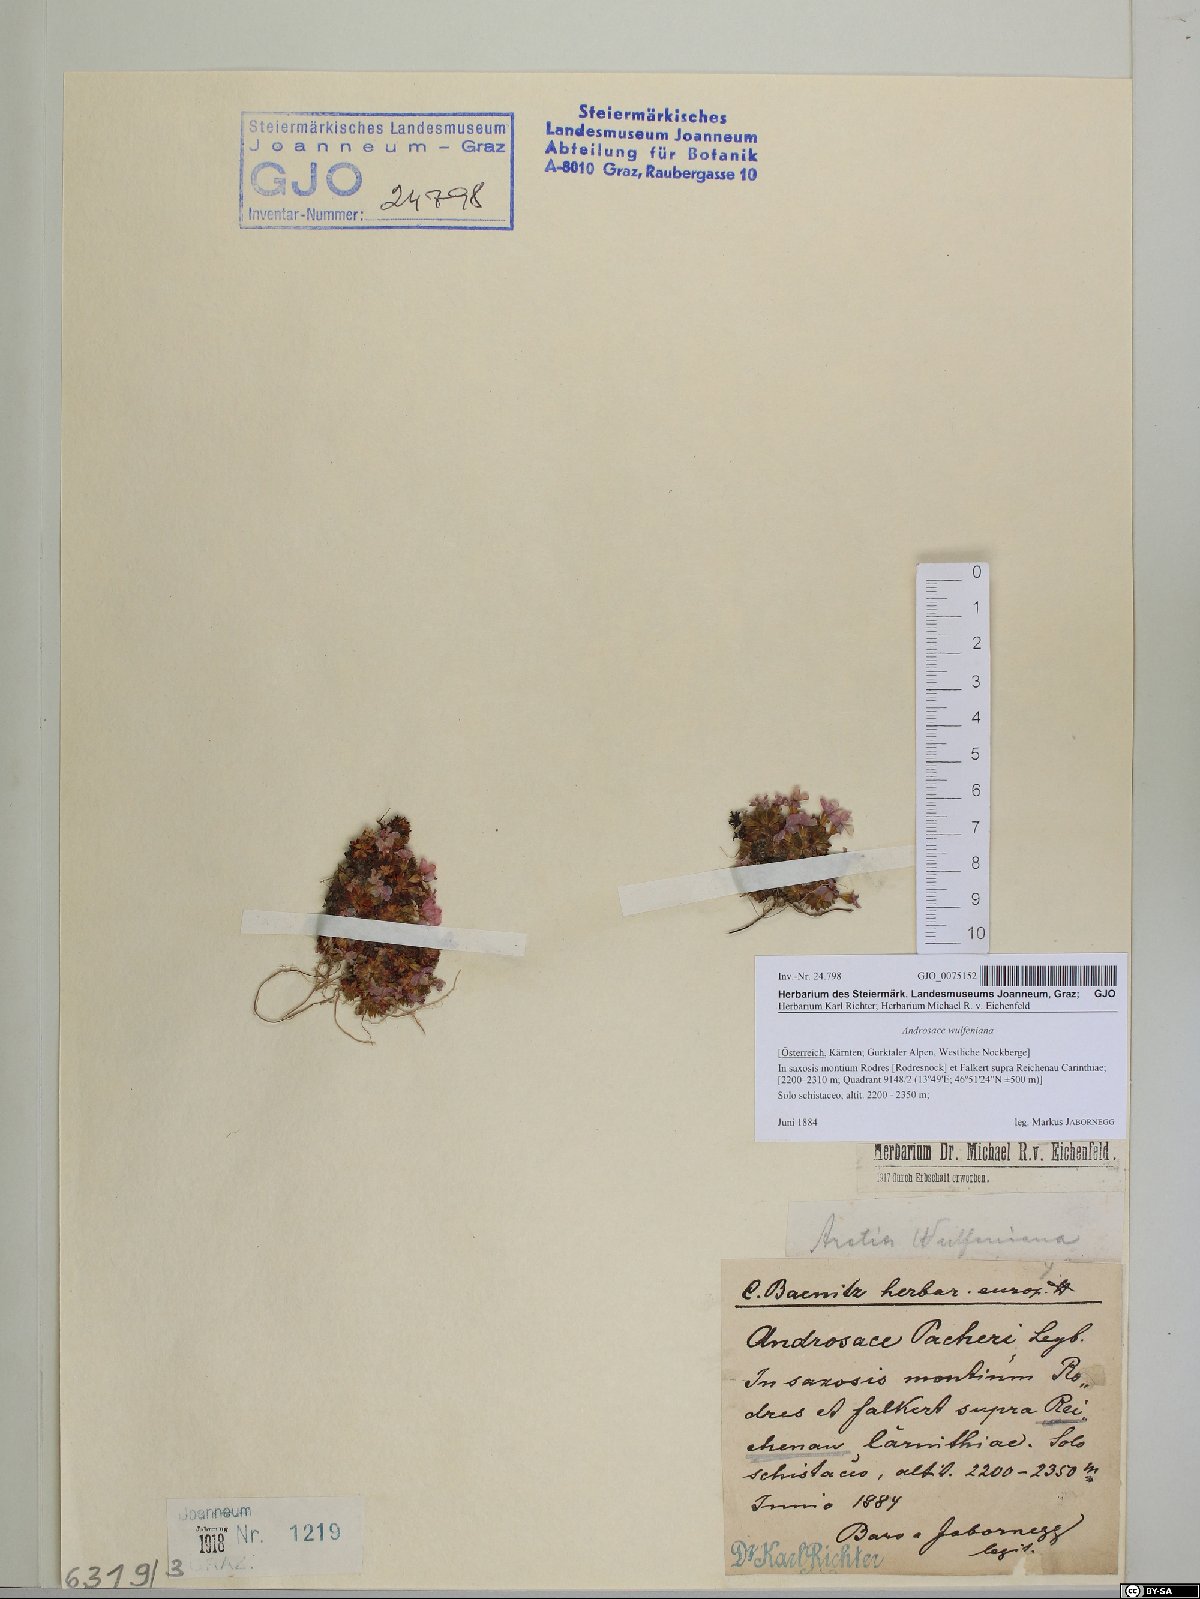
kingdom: Plantae
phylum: Tracheophyta
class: Magnoliopsida
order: Ericales
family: Primulaceae
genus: Androsace
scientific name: Androsace wulfeniana
